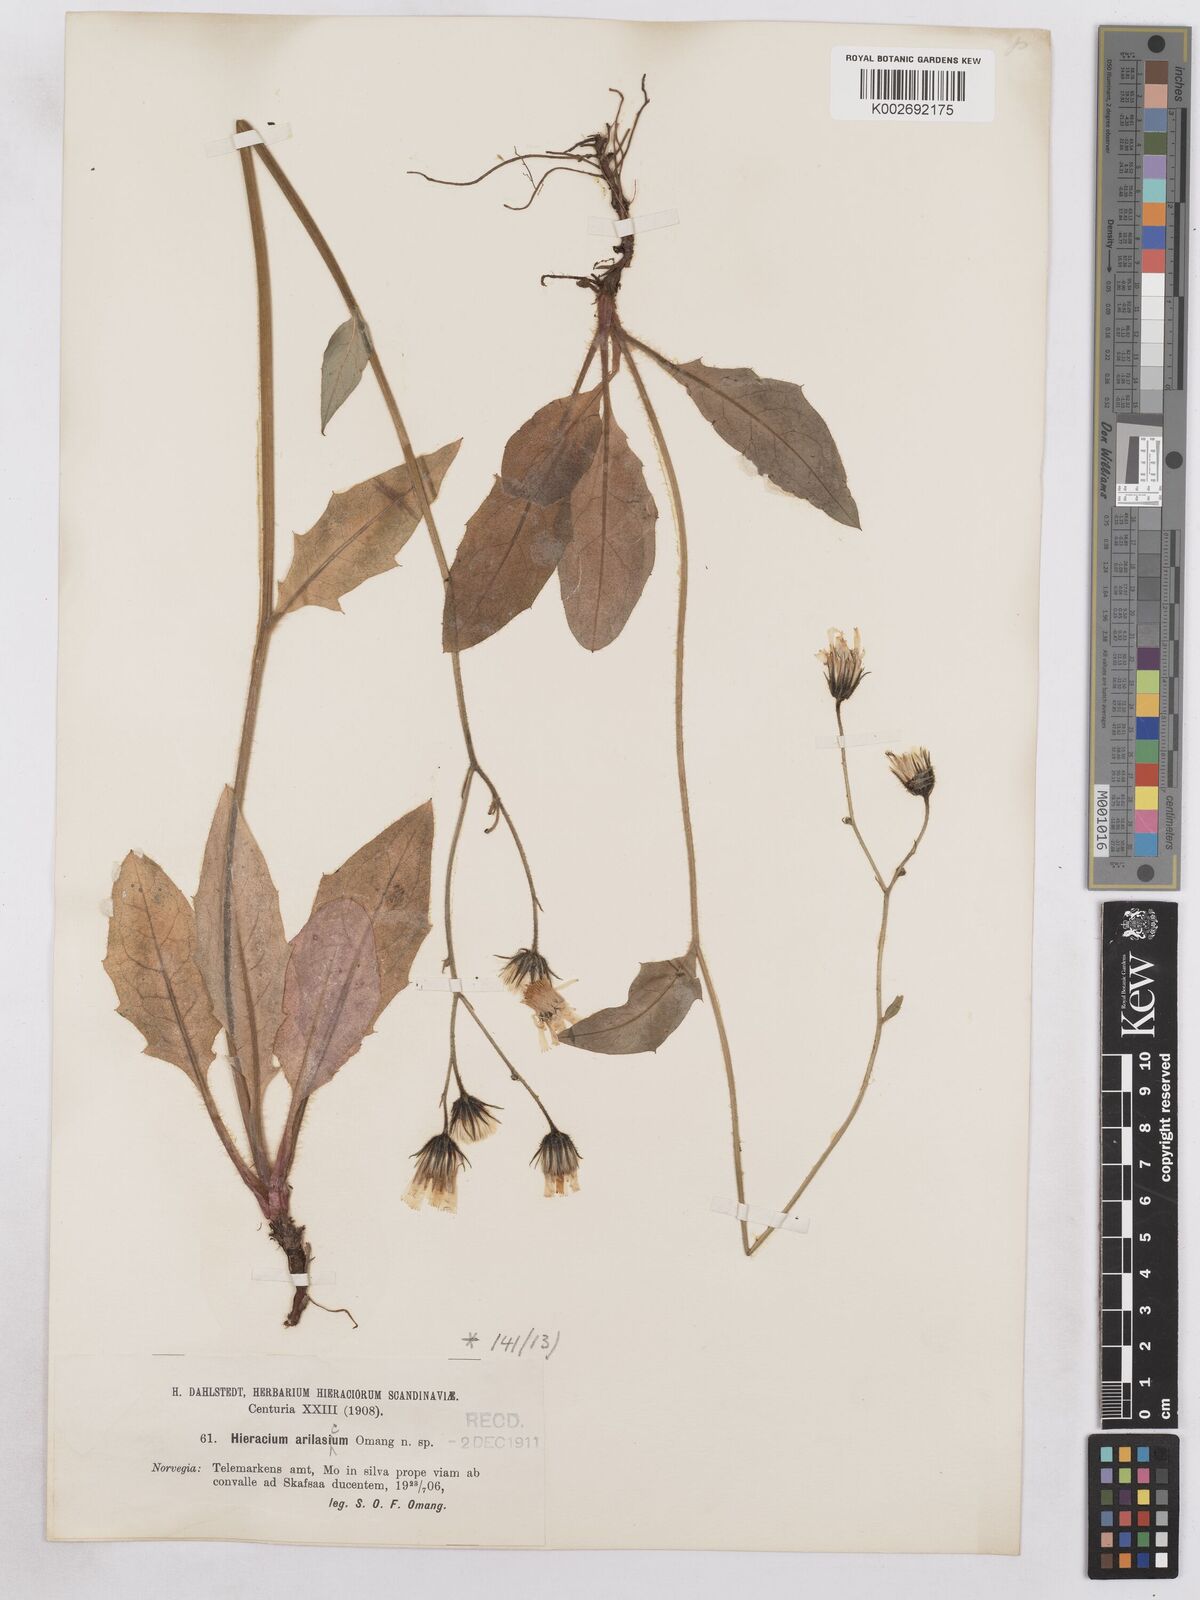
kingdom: Plantae
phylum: Tracheophyta
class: Magnoliopsida
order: Asterales
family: Asteraceae
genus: Hieracium
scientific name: Hieracium diaphanoides
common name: Fine-bracted hawkweed
